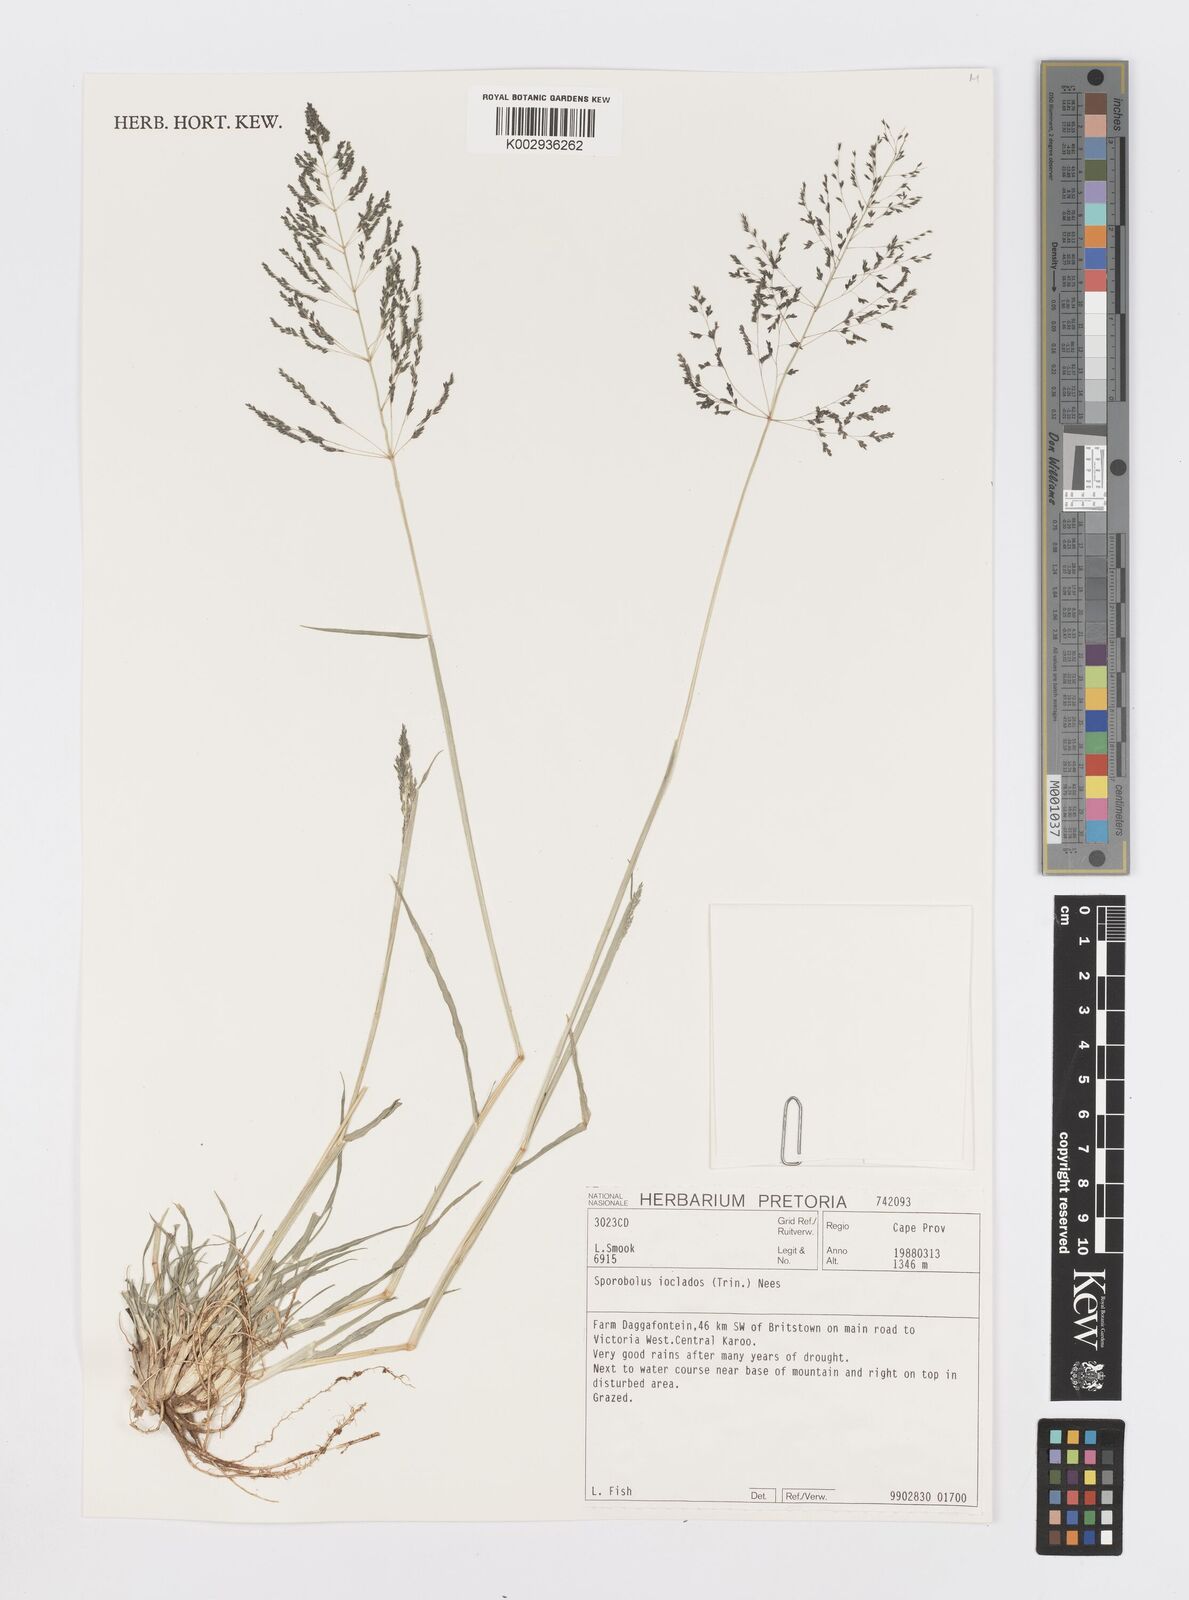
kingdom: Plantae
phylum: Tracheophyta
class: Liliopsida
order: Poales
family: Poaceae
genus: Sporobolus
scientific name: Sporobolus ioclados
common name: Pan dropseed
